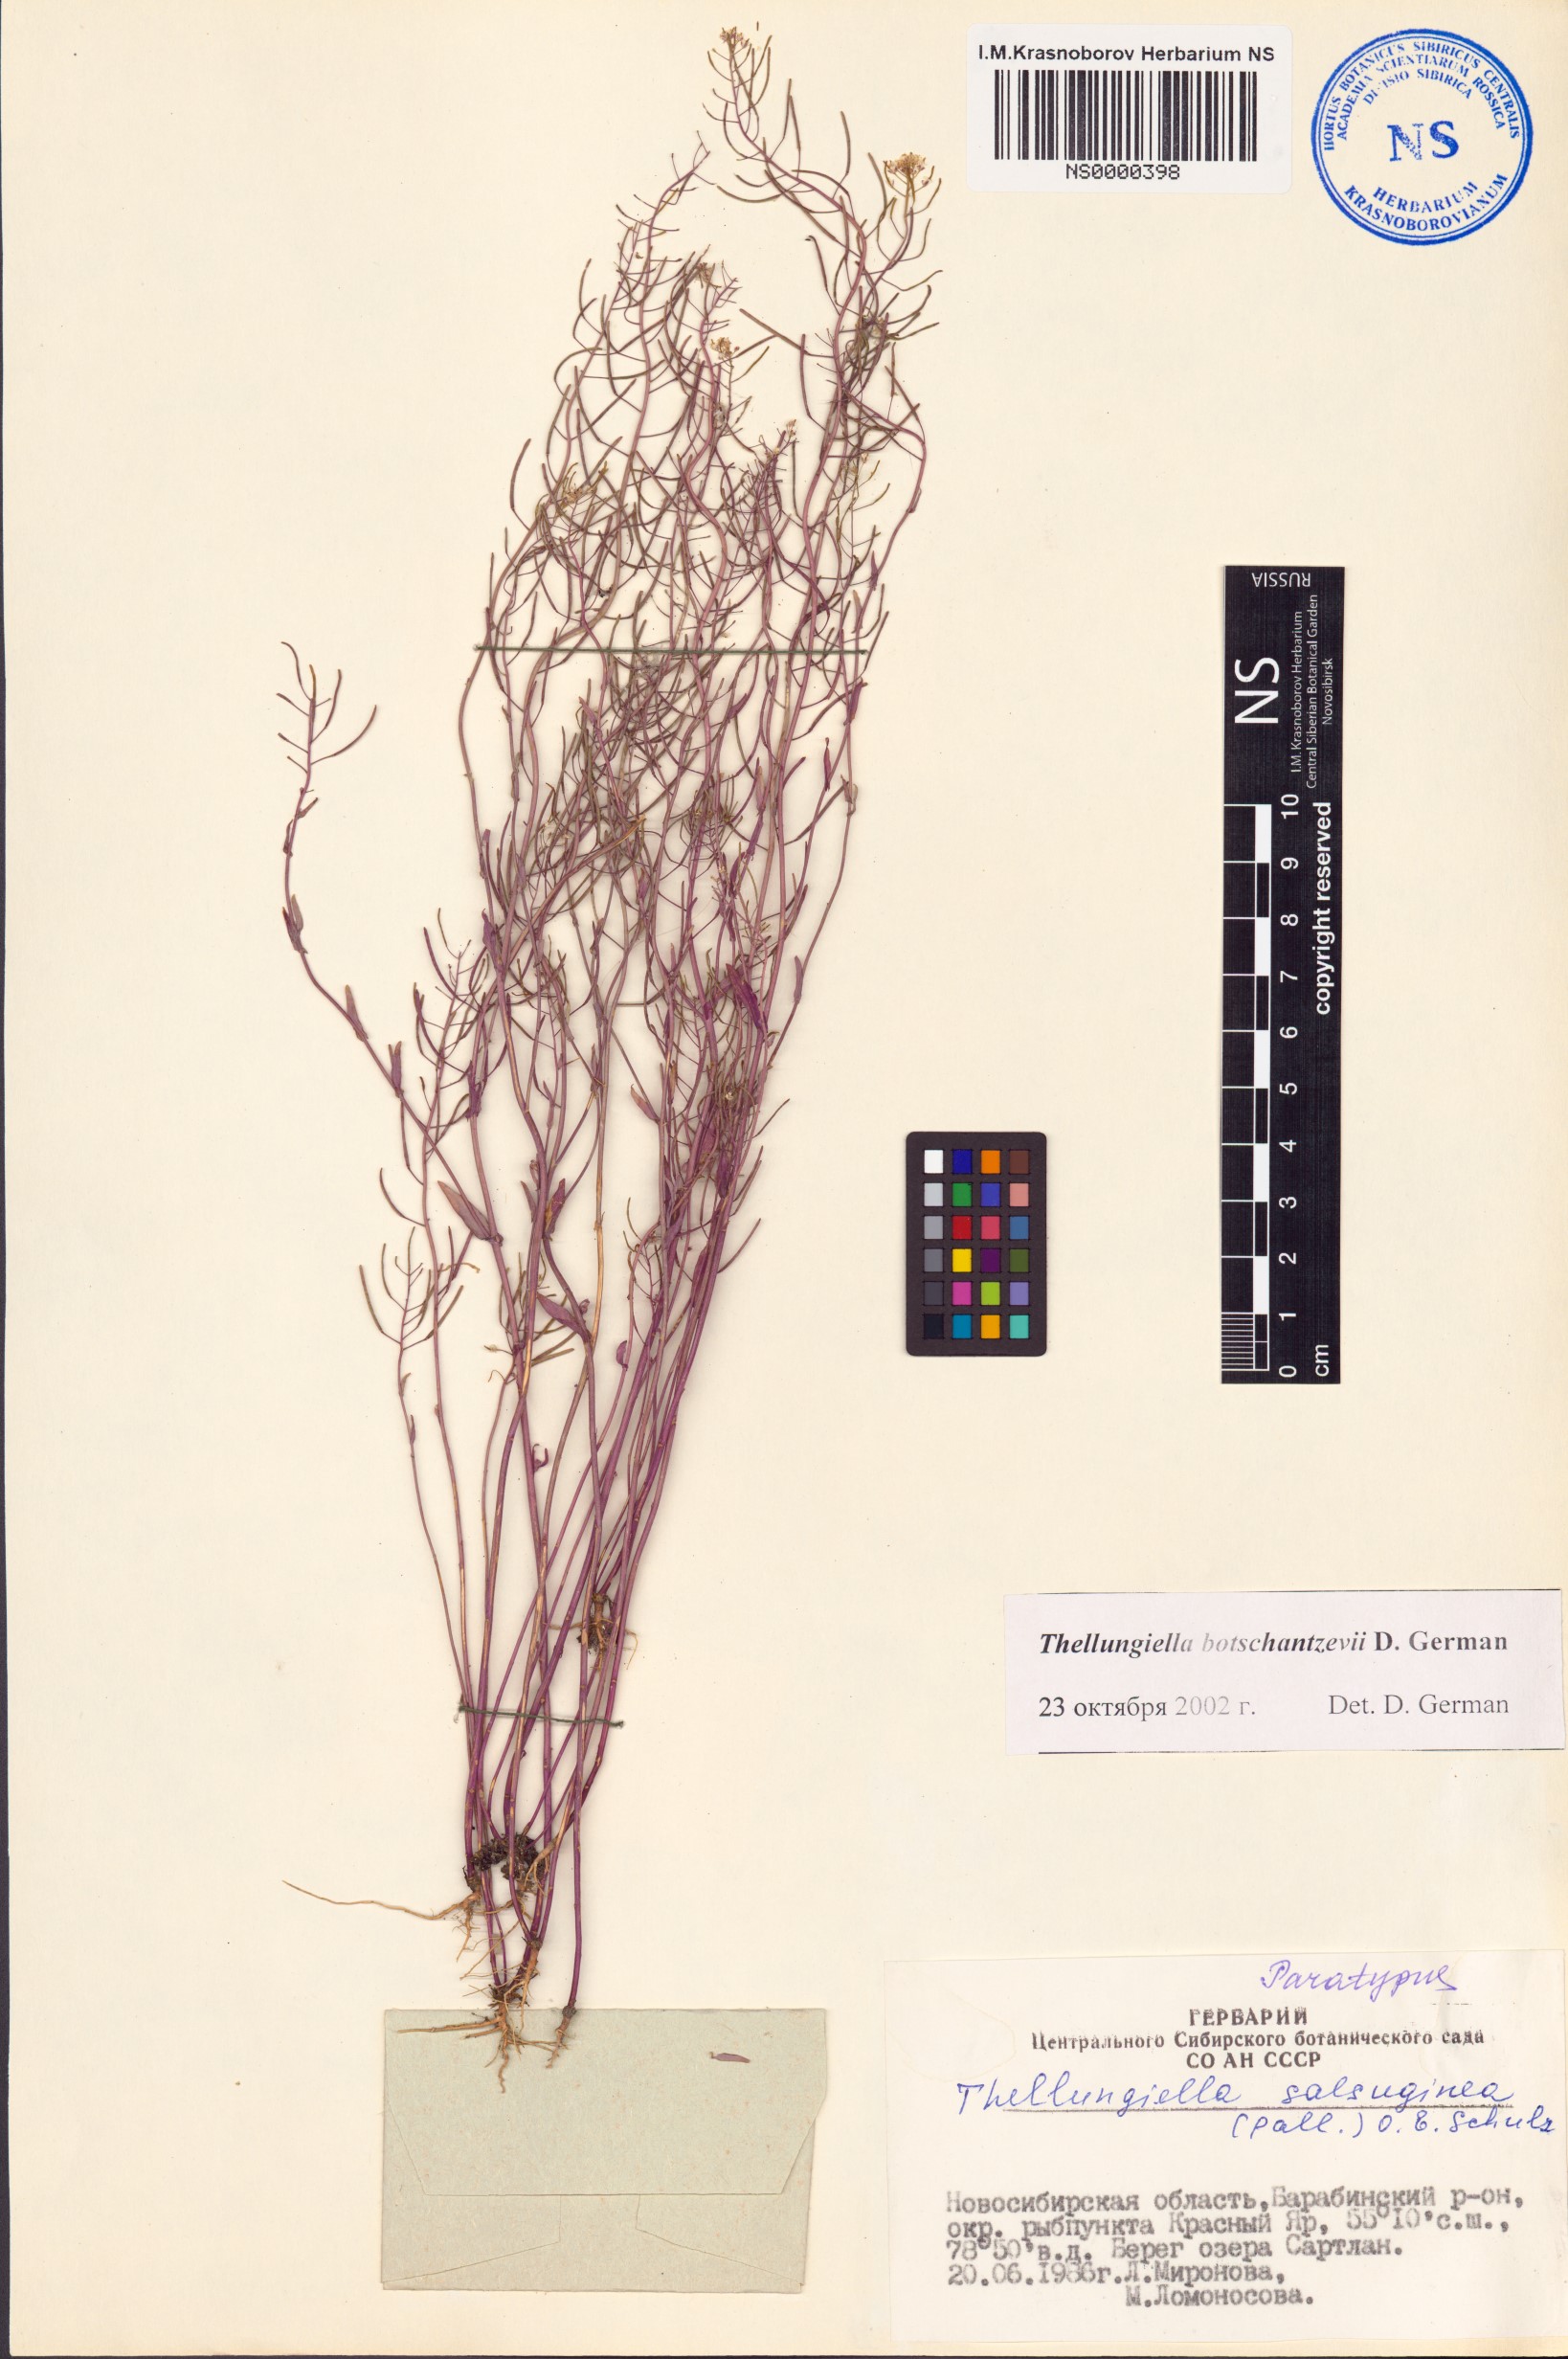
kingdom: Plantae
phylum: Tracheophyta
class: Magnoliopsida
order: Brassicales
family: Brassicaceae
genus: Eutrema
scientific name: Eutrema botschantzevii
